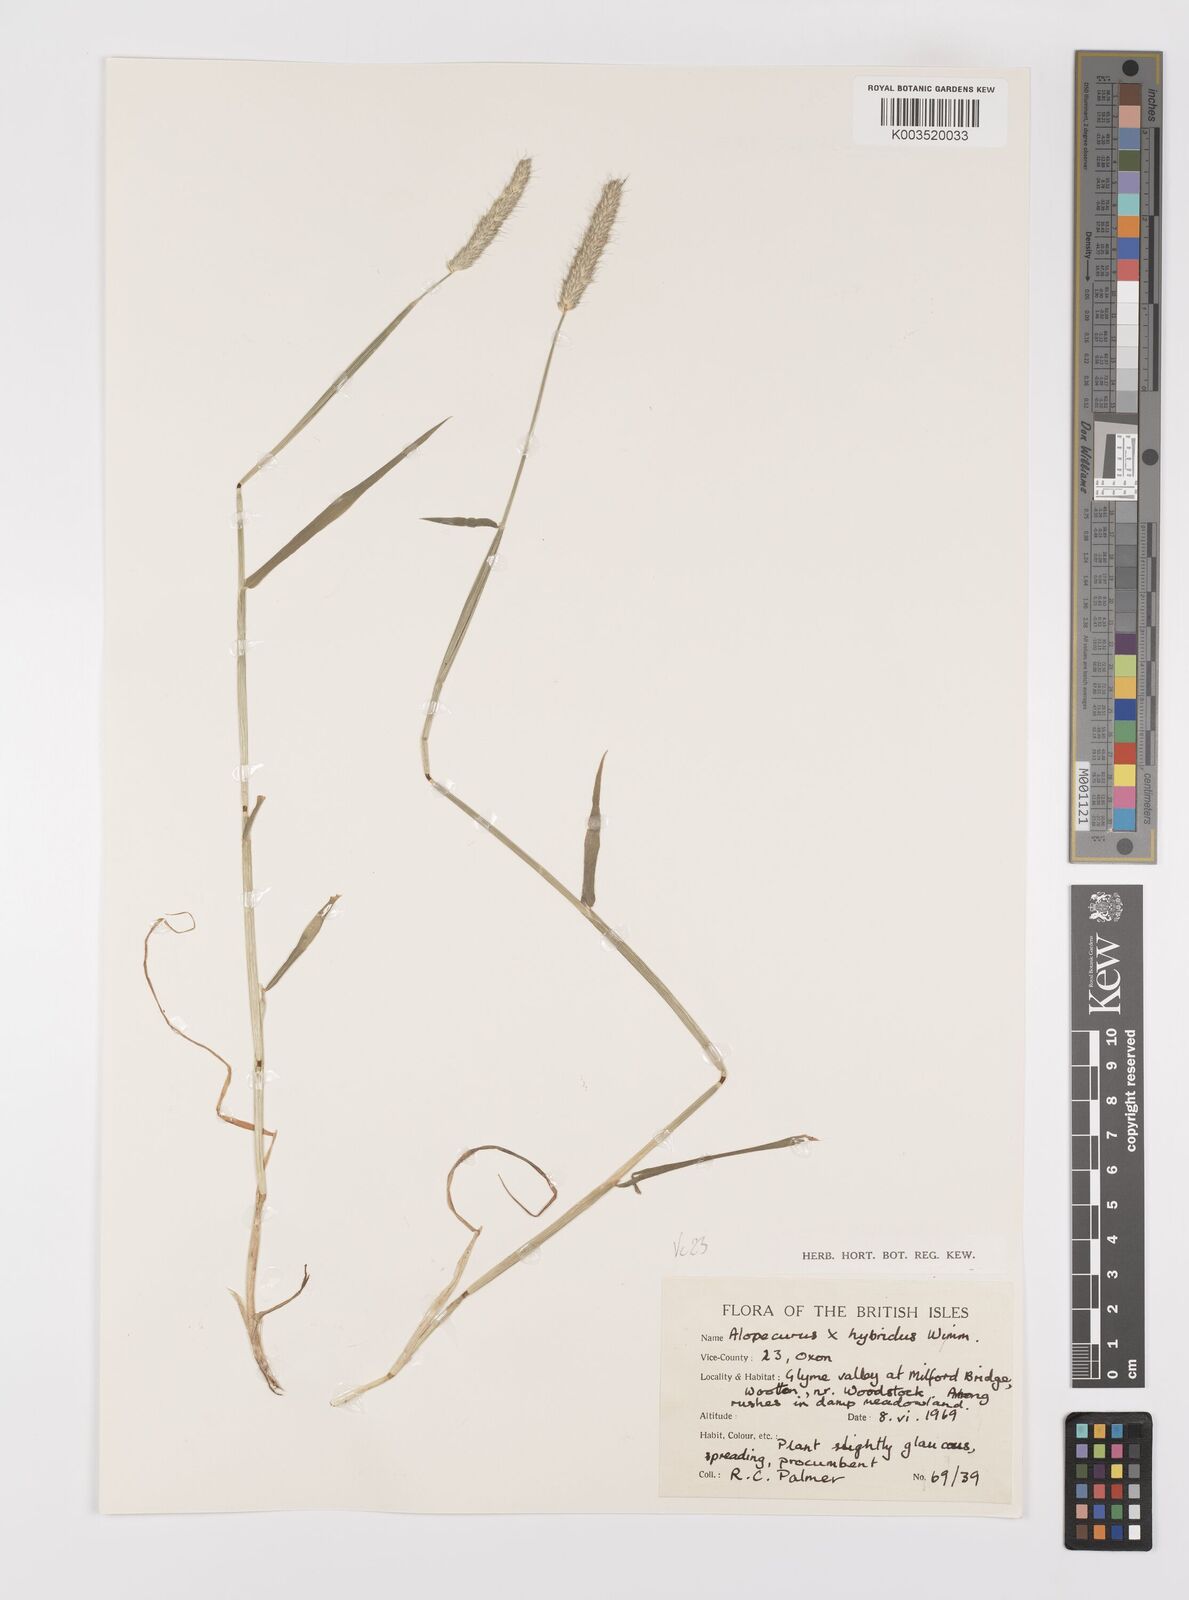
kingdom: Plantae
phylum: Tracheophyta
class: Liliopsida
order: Poales
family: Poaceae
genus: Alopecurus
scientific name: Alopecurus brachystylus
